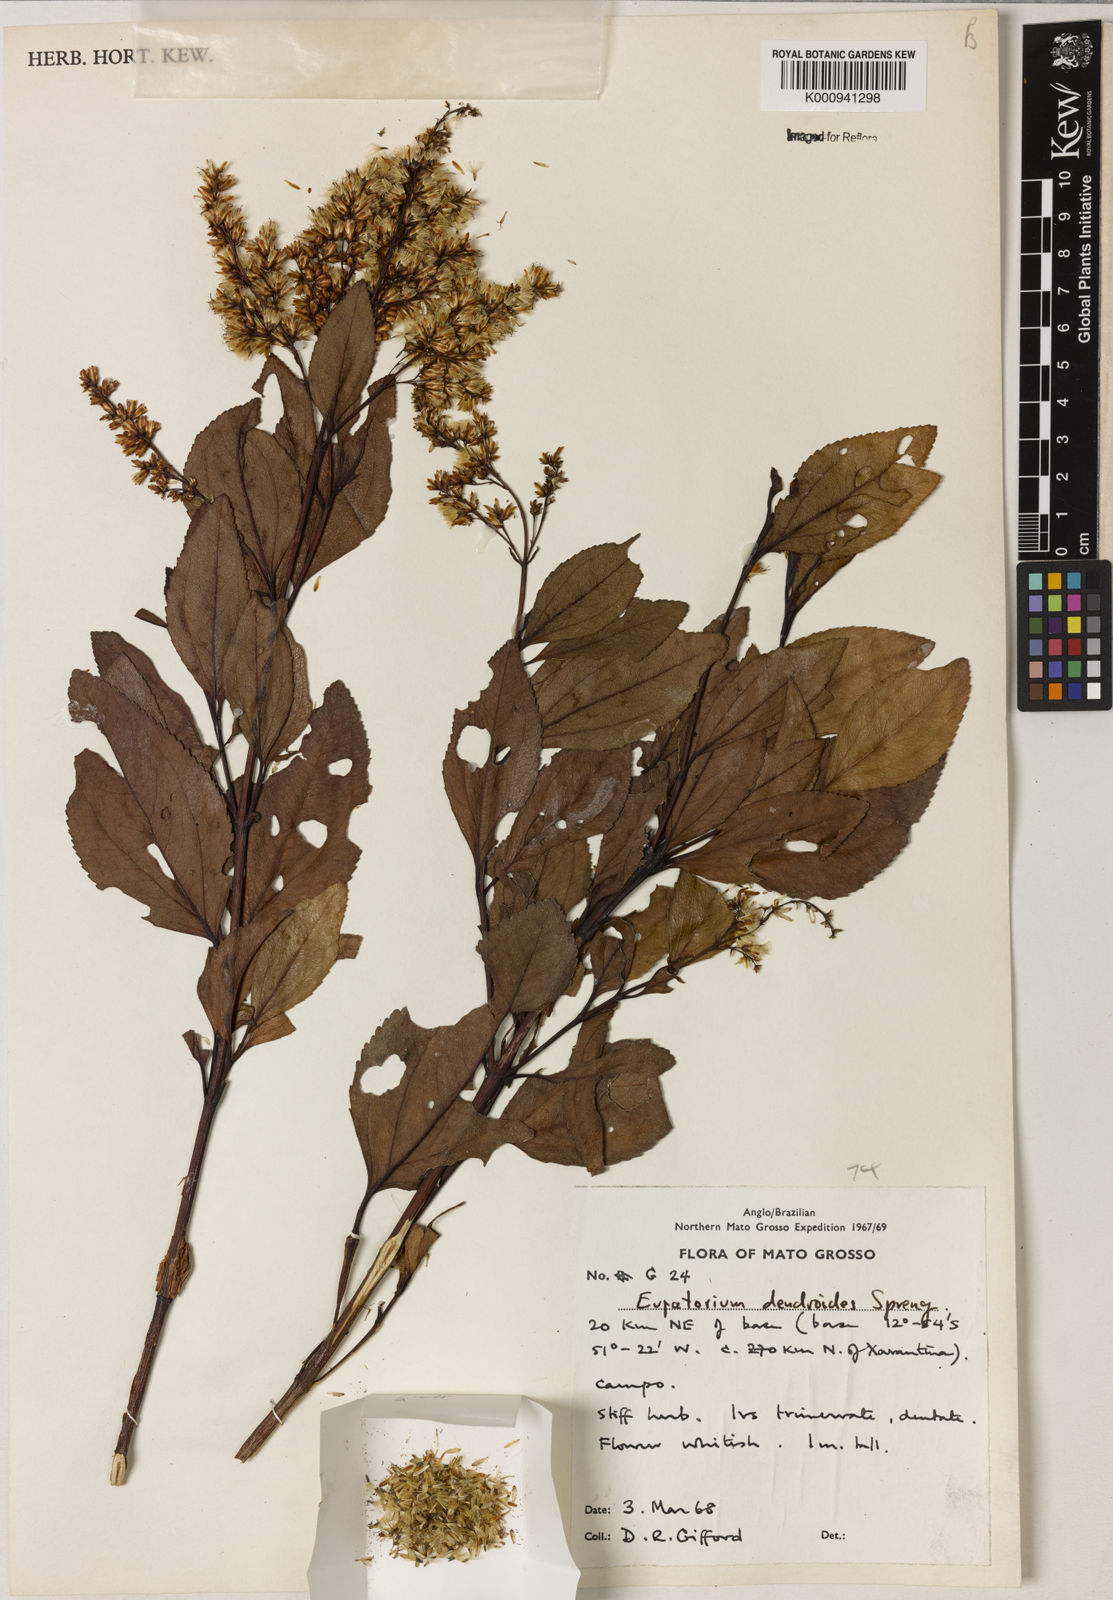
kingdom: Plantae
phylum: Tracheophyta
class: Magnoliopsida
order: Asterales
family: Asteraceae
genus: Raulinoreitzia
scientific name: Raulinoreitzia crenulata
